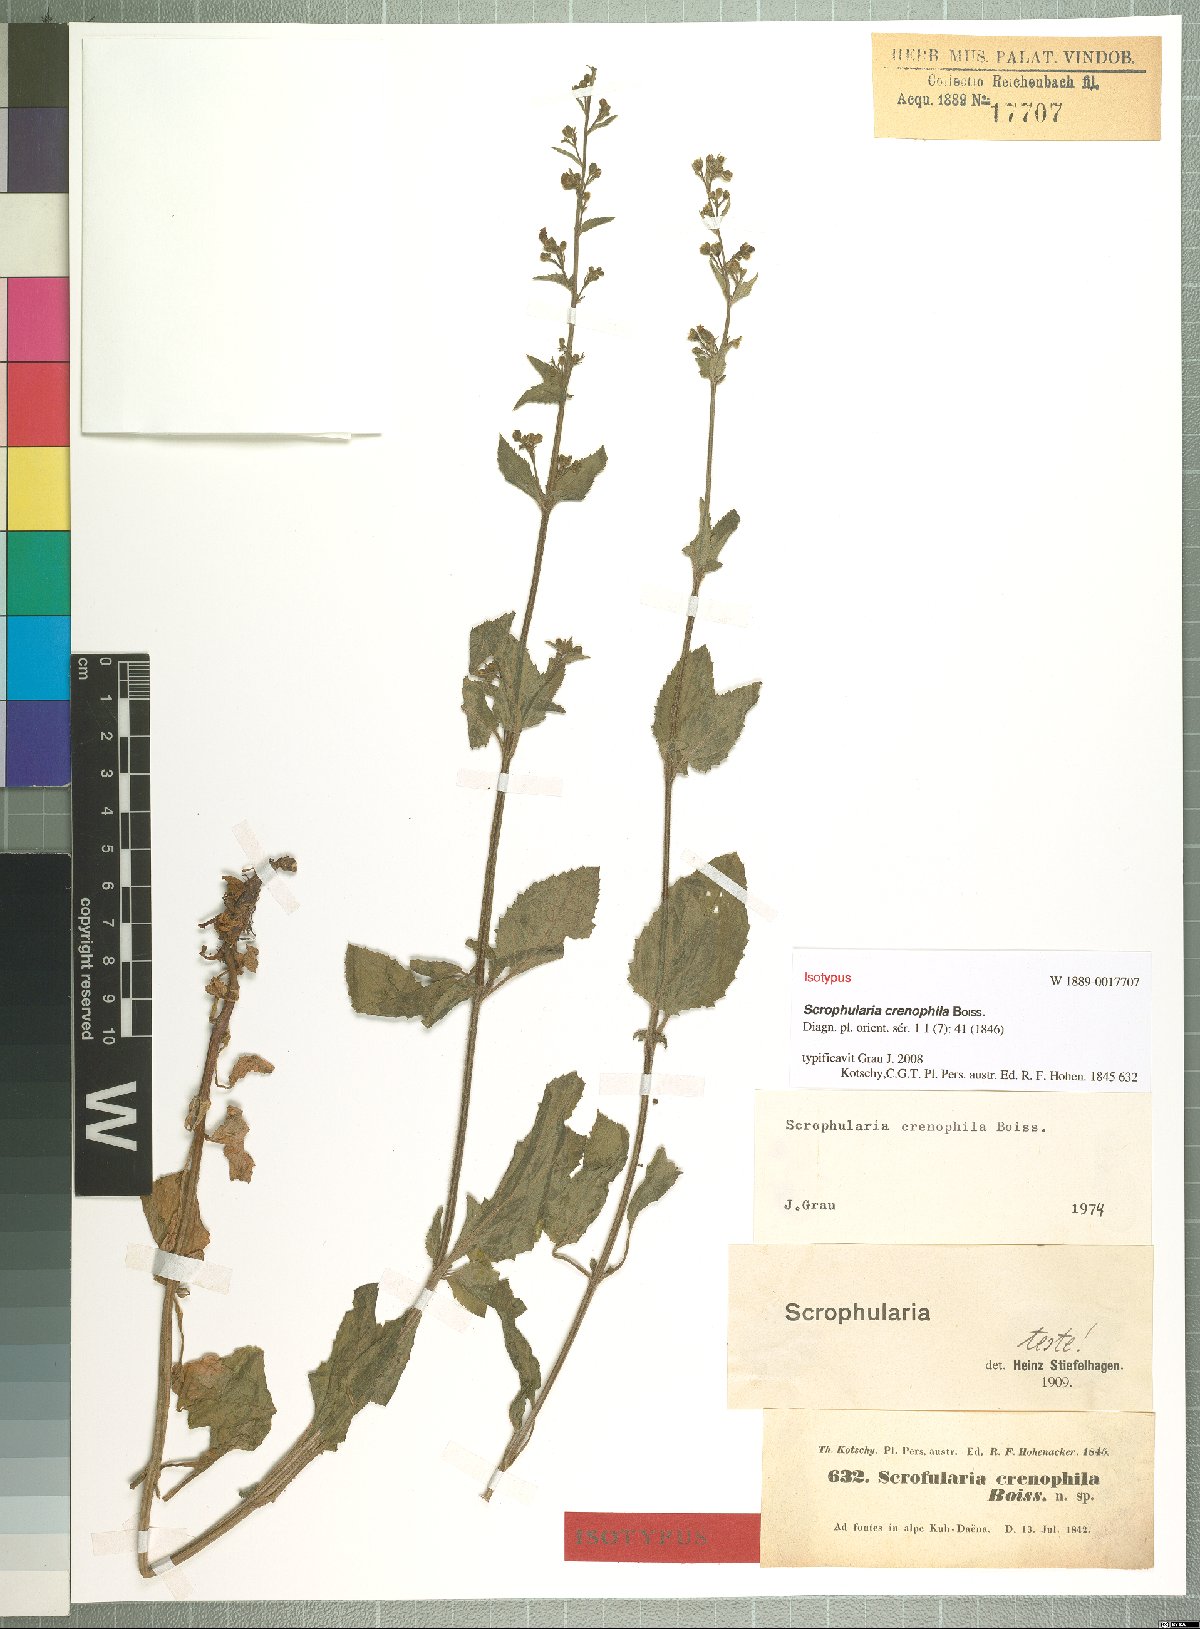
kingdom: Plantae
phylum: Tracheophyta
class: Magnoliopsida
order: Lamiales
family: Scrophulariaceae
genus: Scrophularia
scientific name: Scrophularia crenophila
